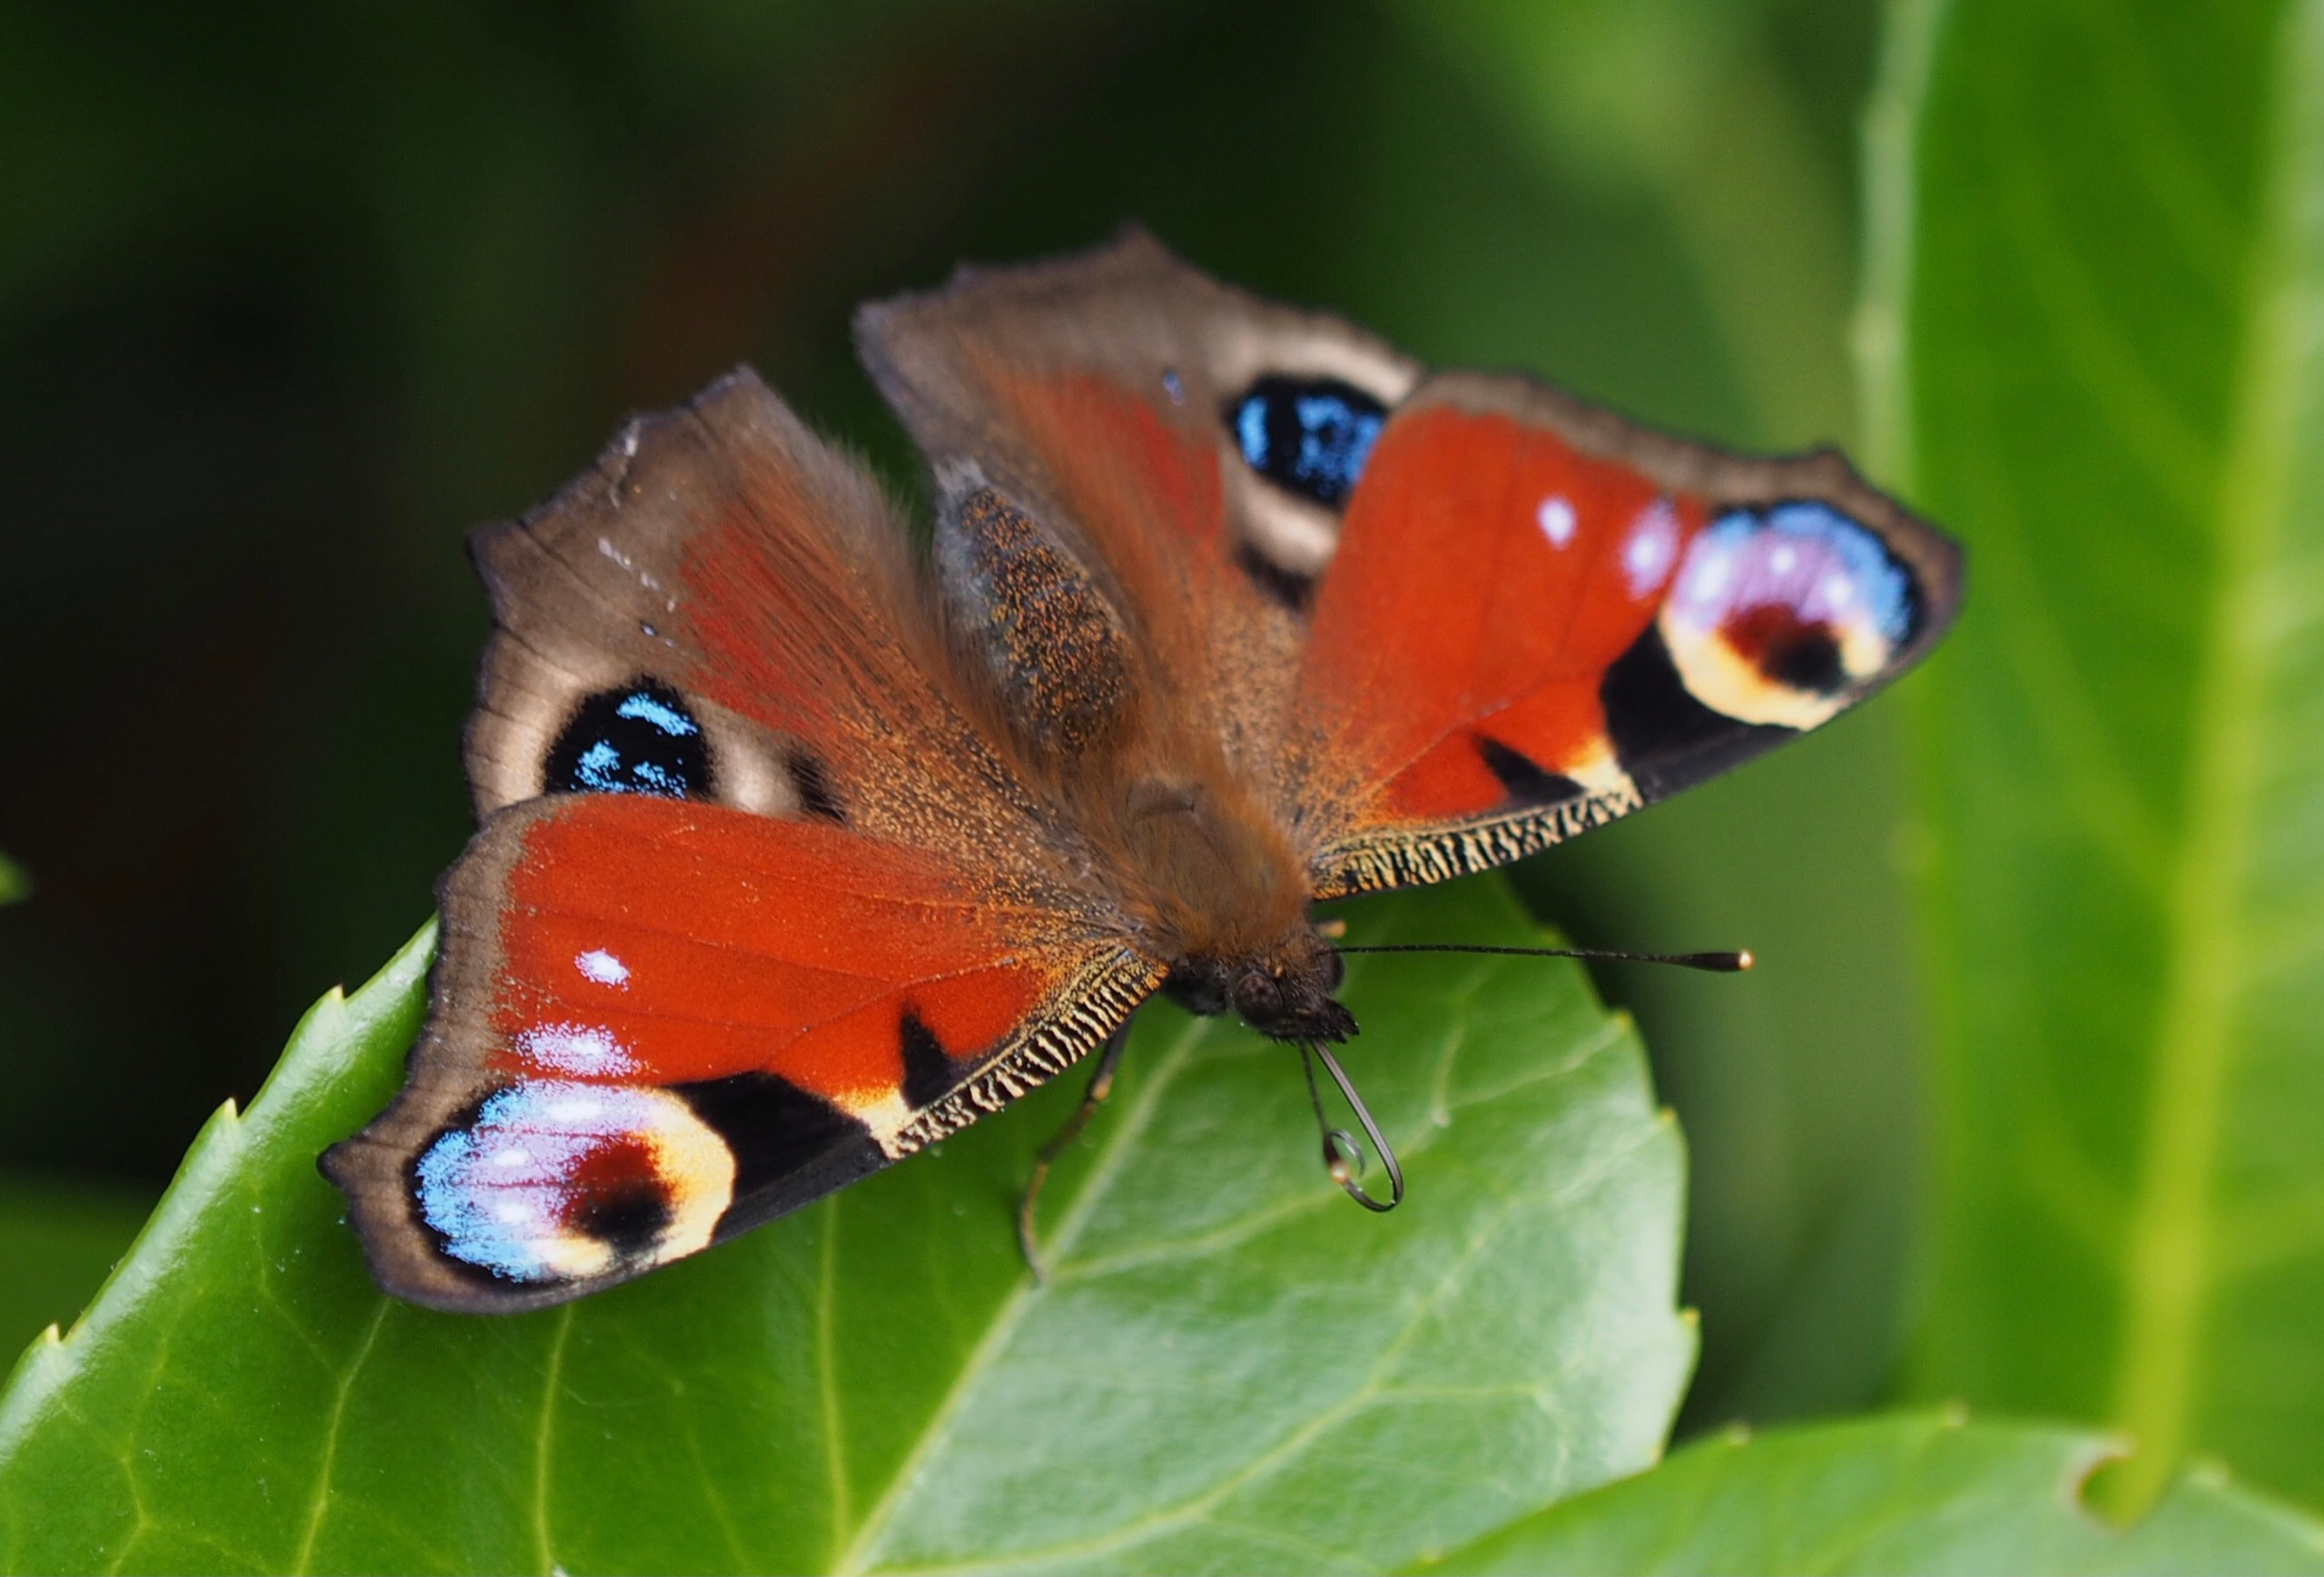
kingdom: Animalia
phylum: Arthropoda
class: Insecta
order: Lepidoptera
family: Nymphalidae
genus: Aglais
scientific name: Aglais io
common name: Dagpåfugleøje
